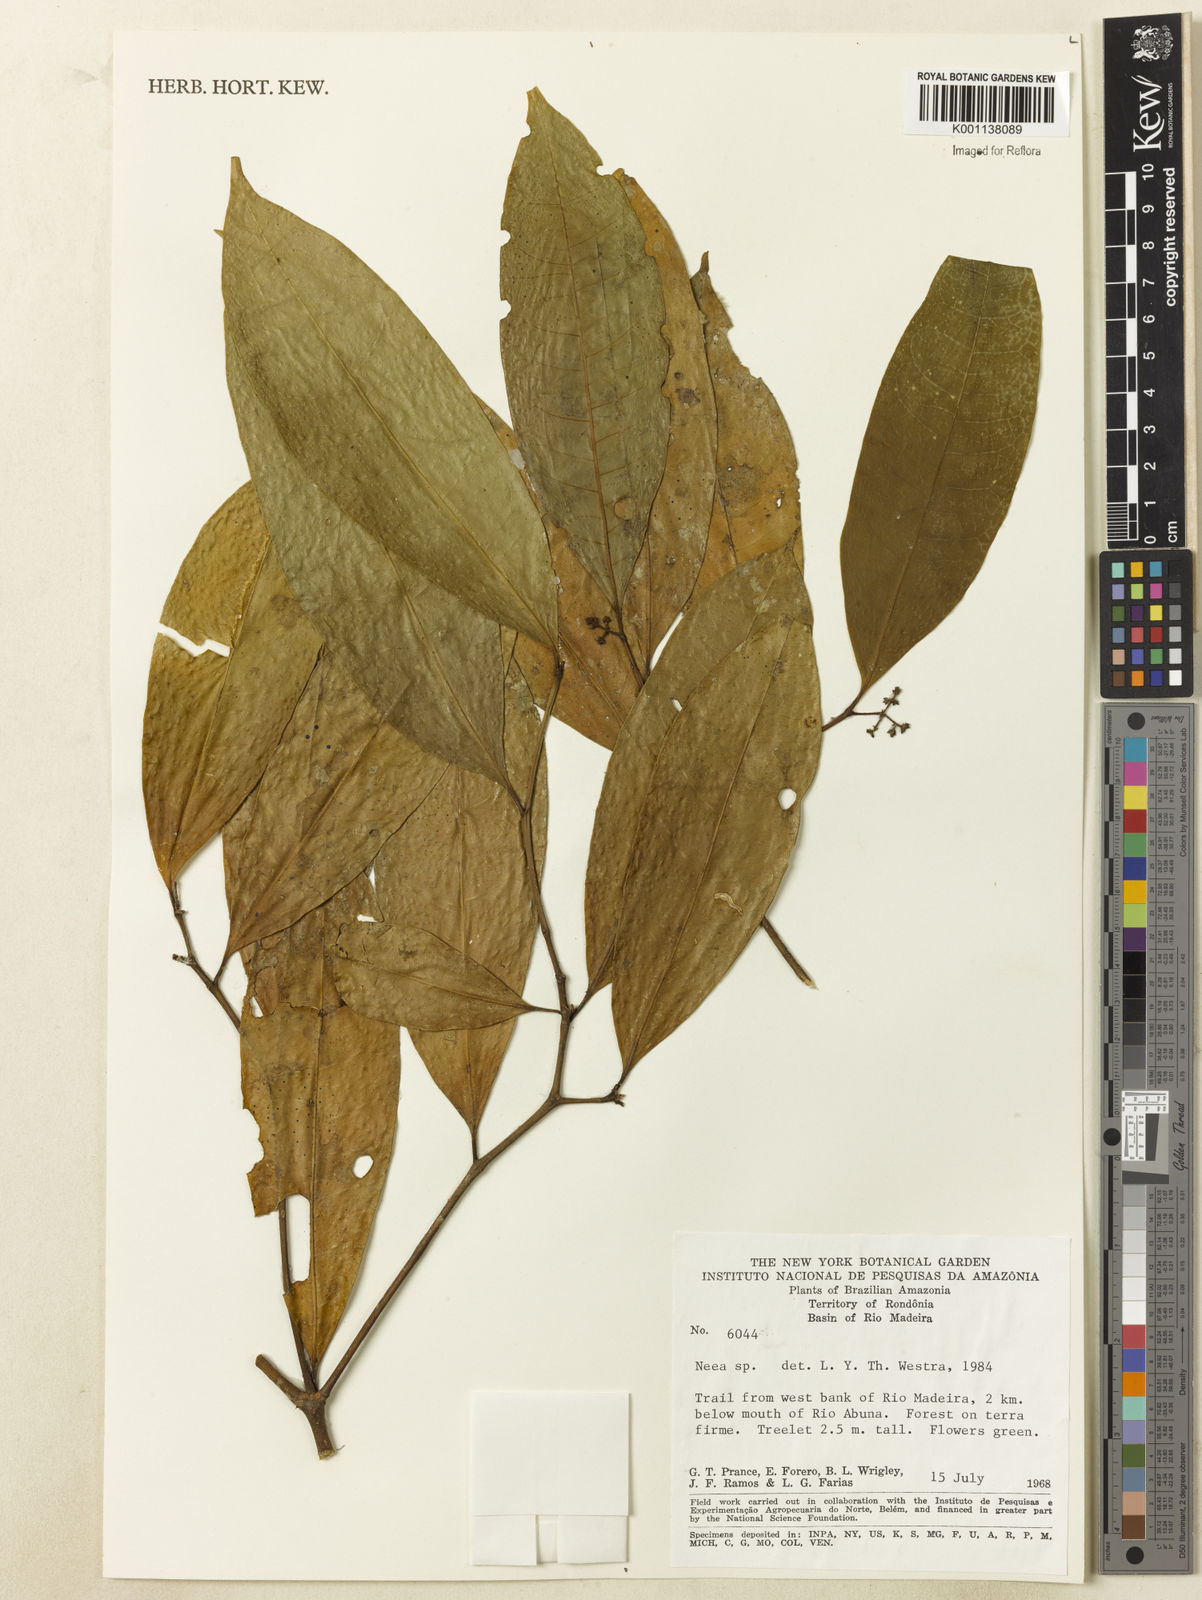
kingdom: Plantae
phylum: Tracheophyta
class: Magnoliopsida
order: Caryophyllales
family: Nyctaginaceae
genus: Neea
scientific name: Neea
